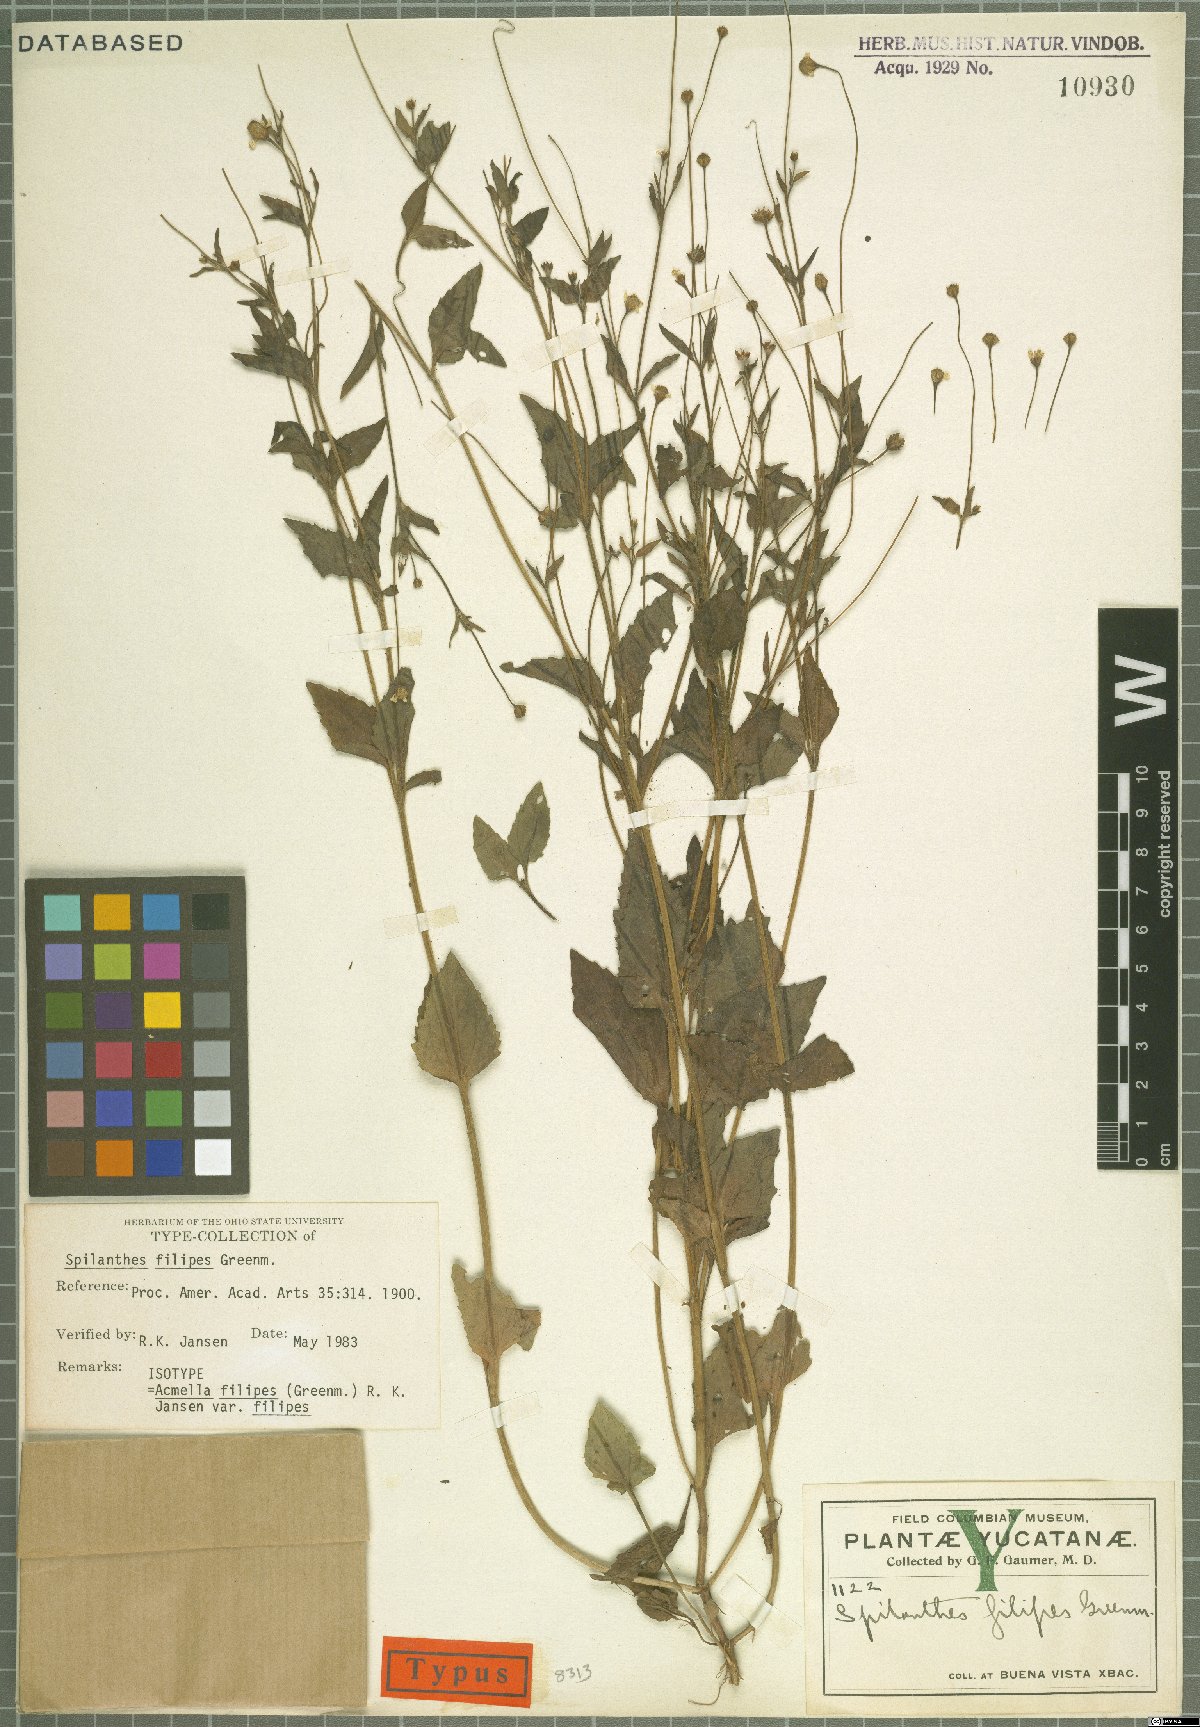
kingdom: Plantae
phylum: Tracheophyta
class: Magnoliopsida
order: Asterales
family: Asteraceae
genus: Acmella
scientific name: Acmella filipes
